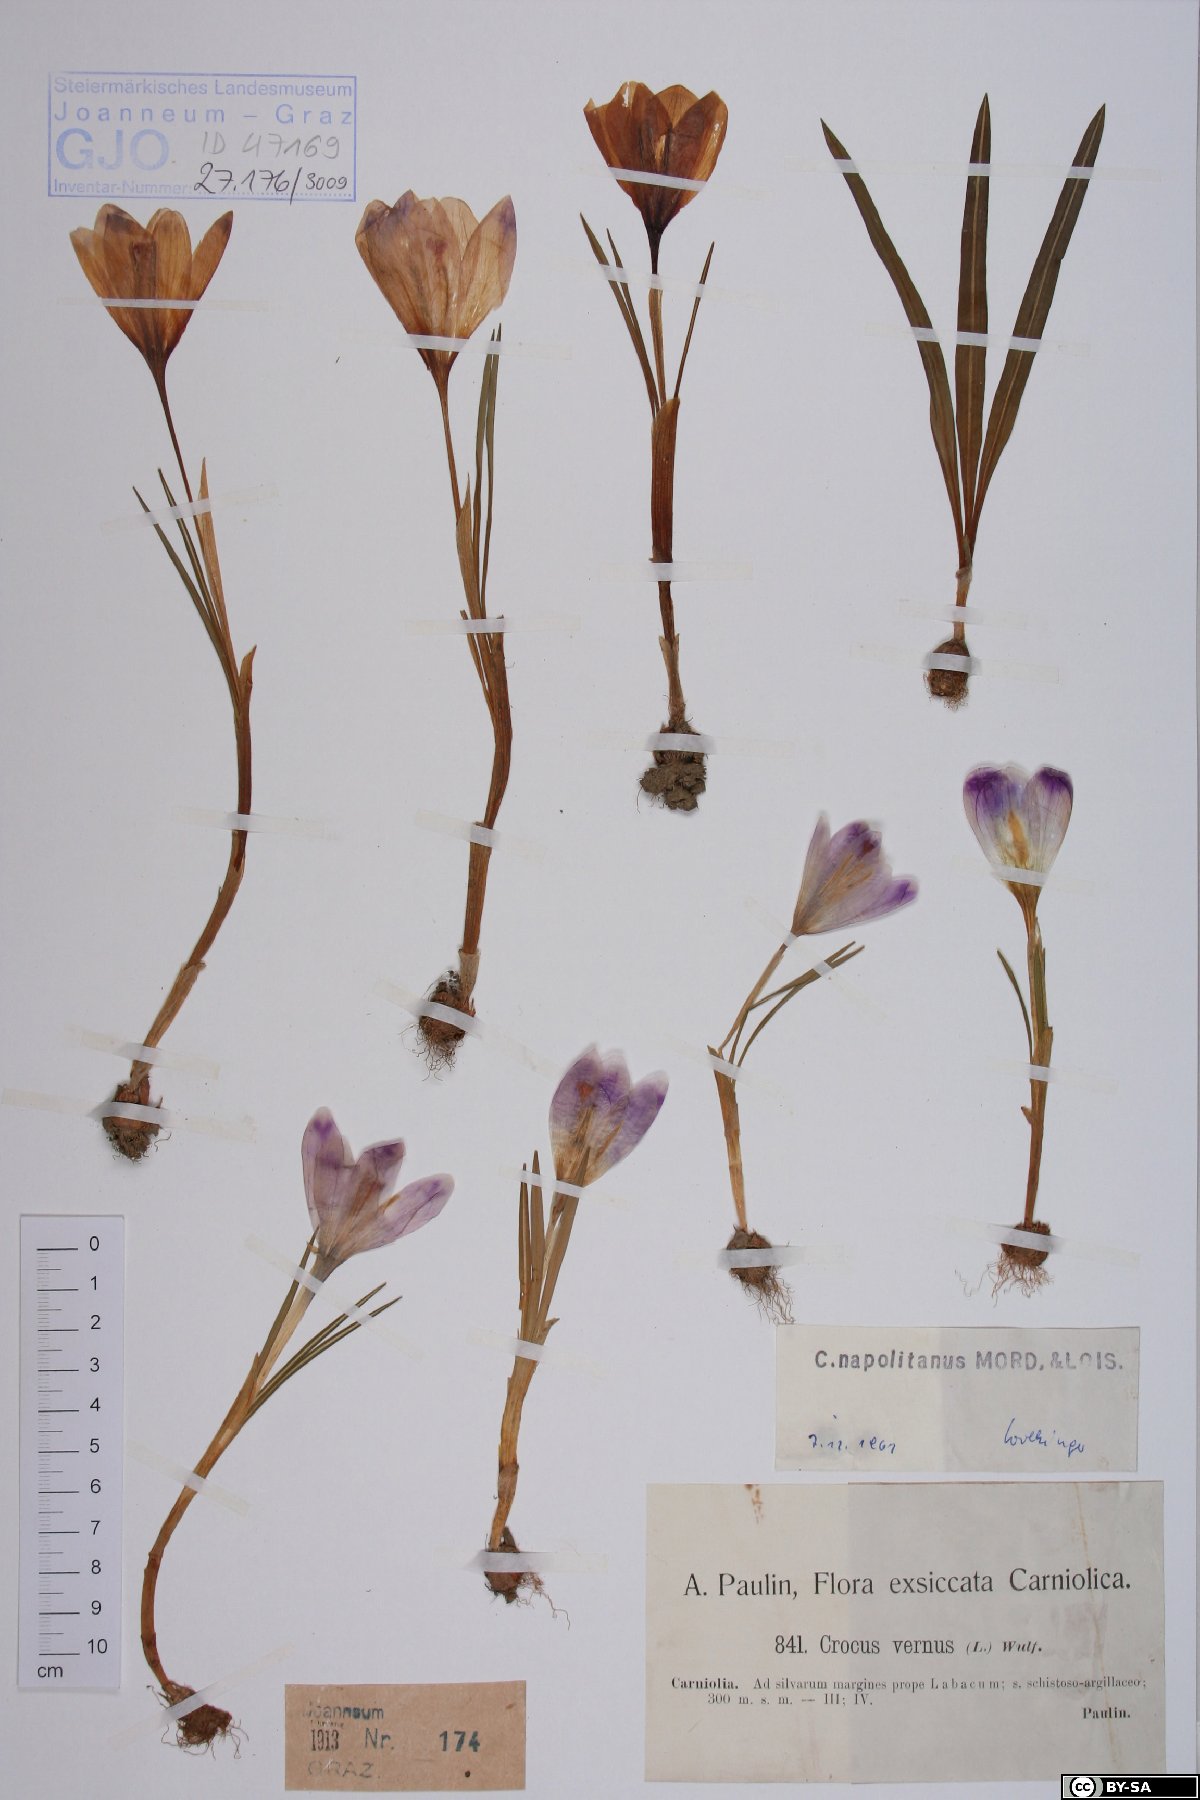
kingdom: Plantae
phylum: Tracheophyta
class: Liliopsida
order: Asparagales
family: Iridaceae
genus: Crocus
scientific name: Crocus vernus
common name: Spring crocus
